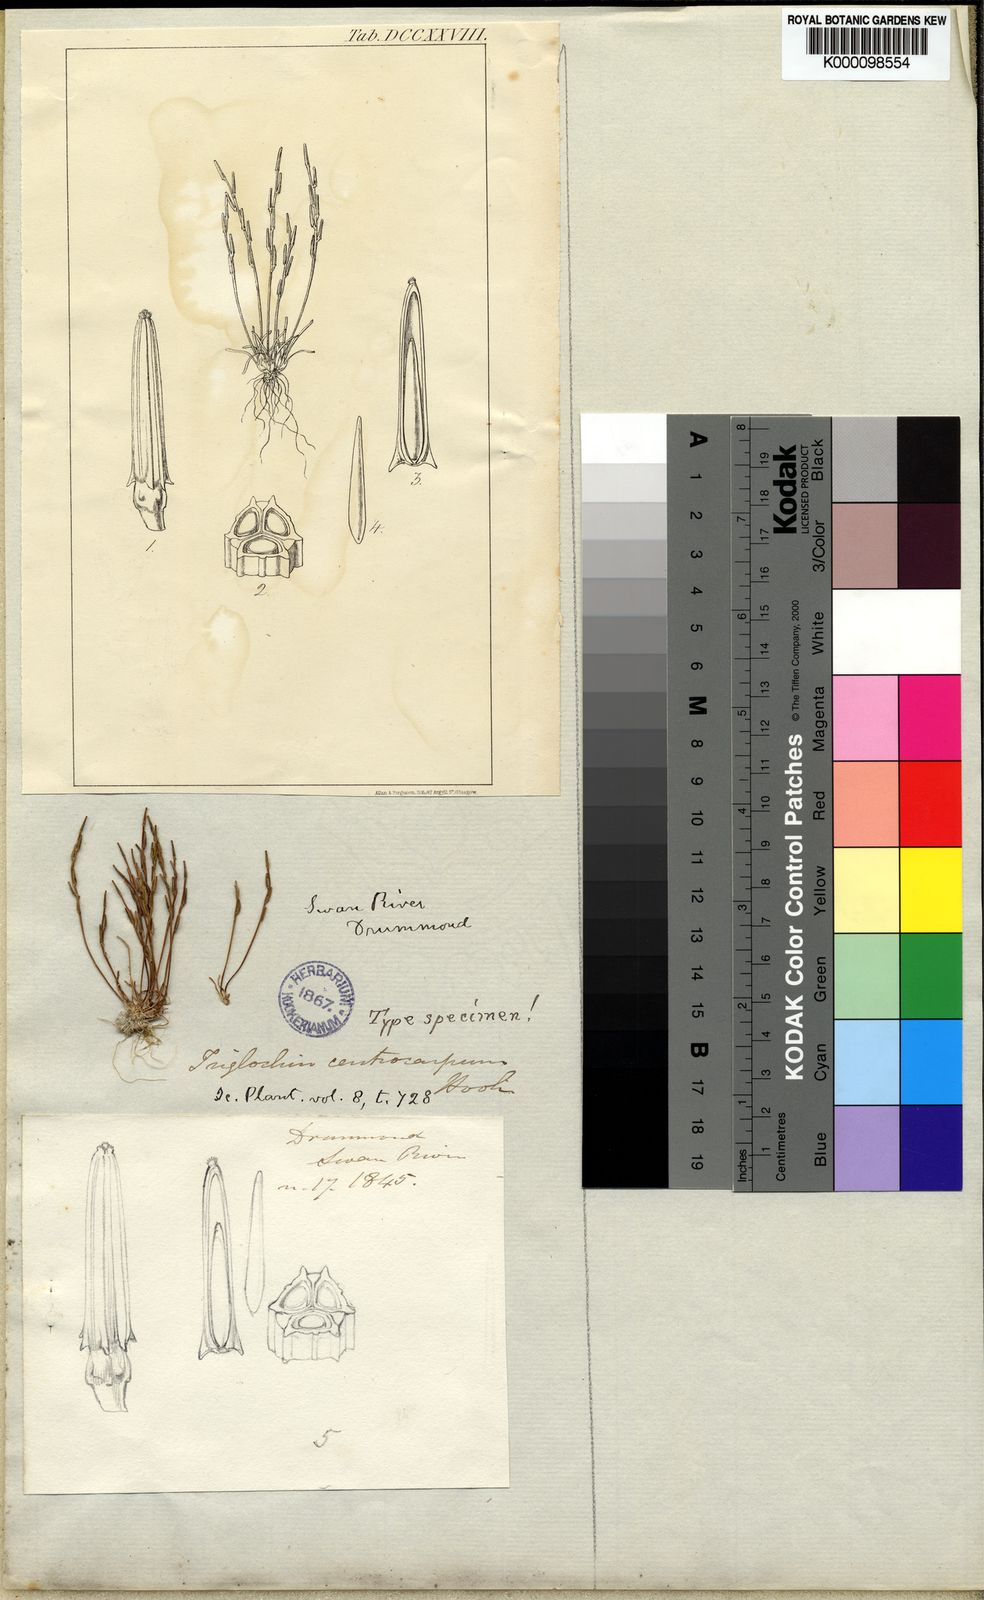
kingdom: Plantae
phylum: Tracheophyta
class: Liliopsida
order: Alismatales
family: Juncaginaceae
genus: Triglochin
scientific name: Triglochin centrocarpa
